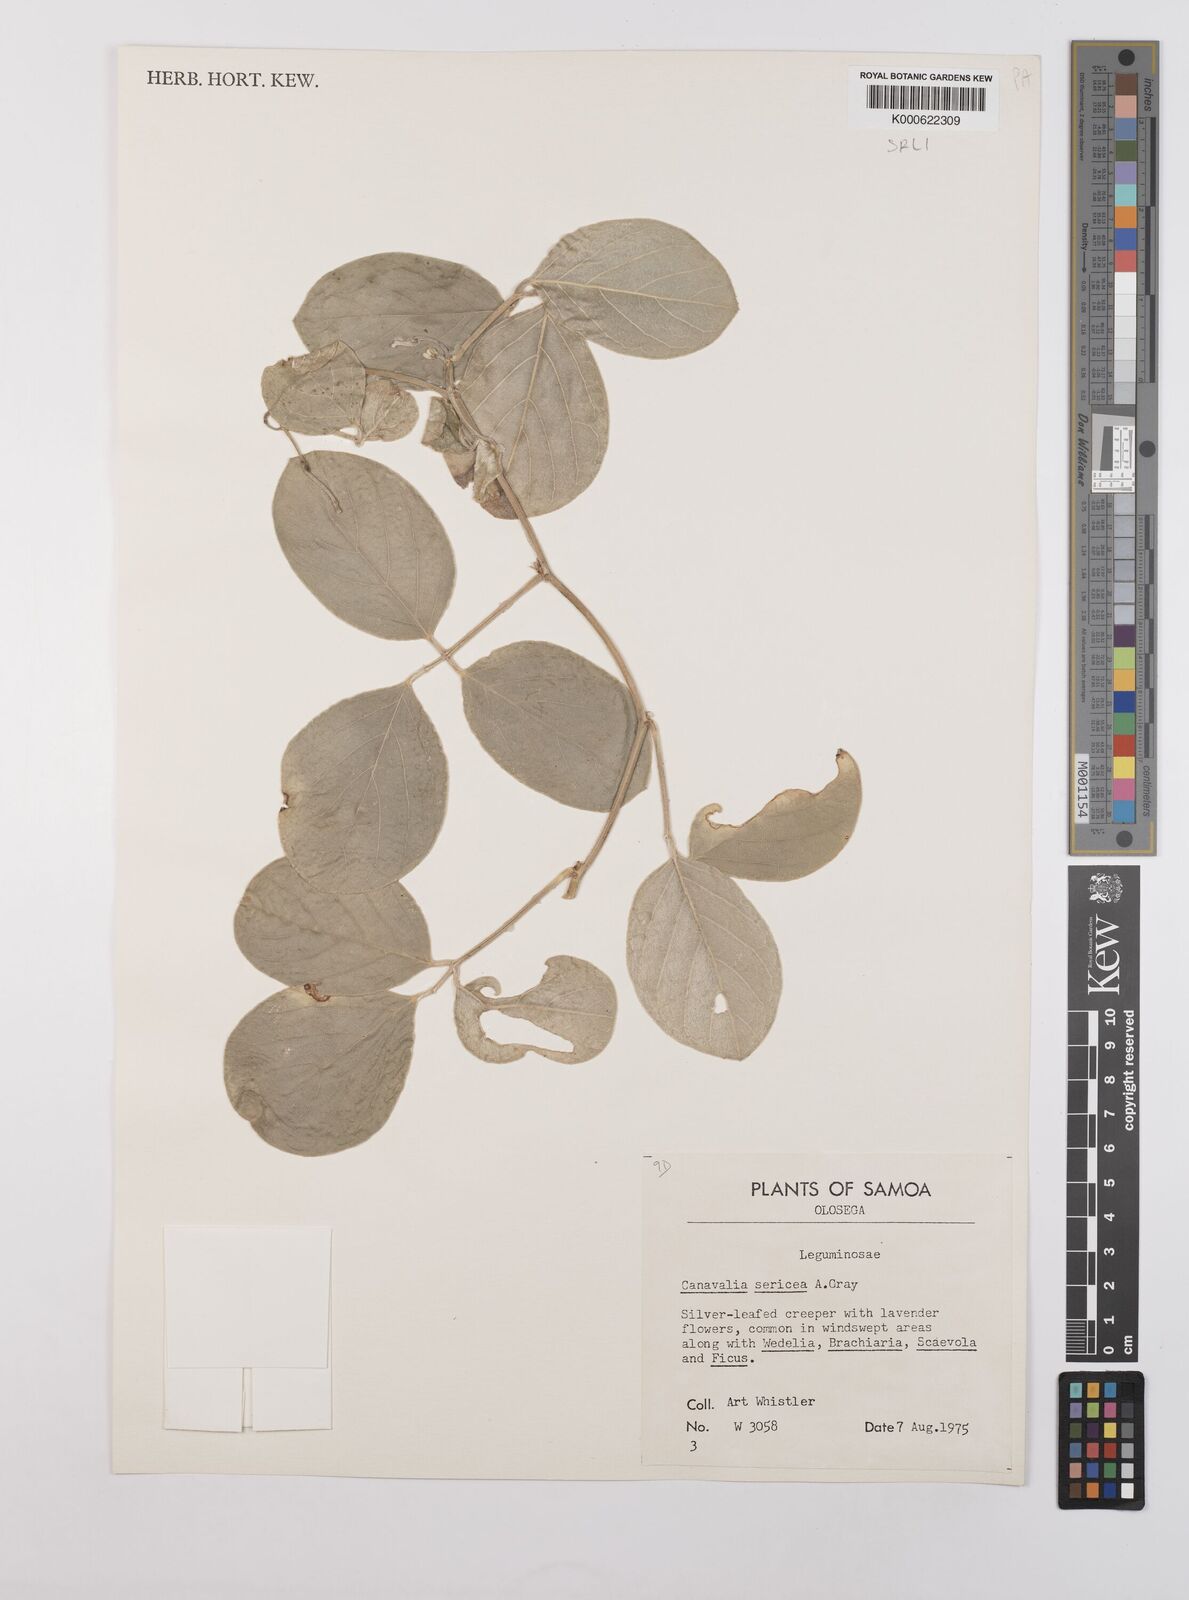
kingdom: Plantae
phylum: Tracheophyta
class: Magnoliopsida
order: Fabales
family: Fabaceae
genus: Canavalia
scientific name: Canavalia sericea
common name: Silky jackbean
